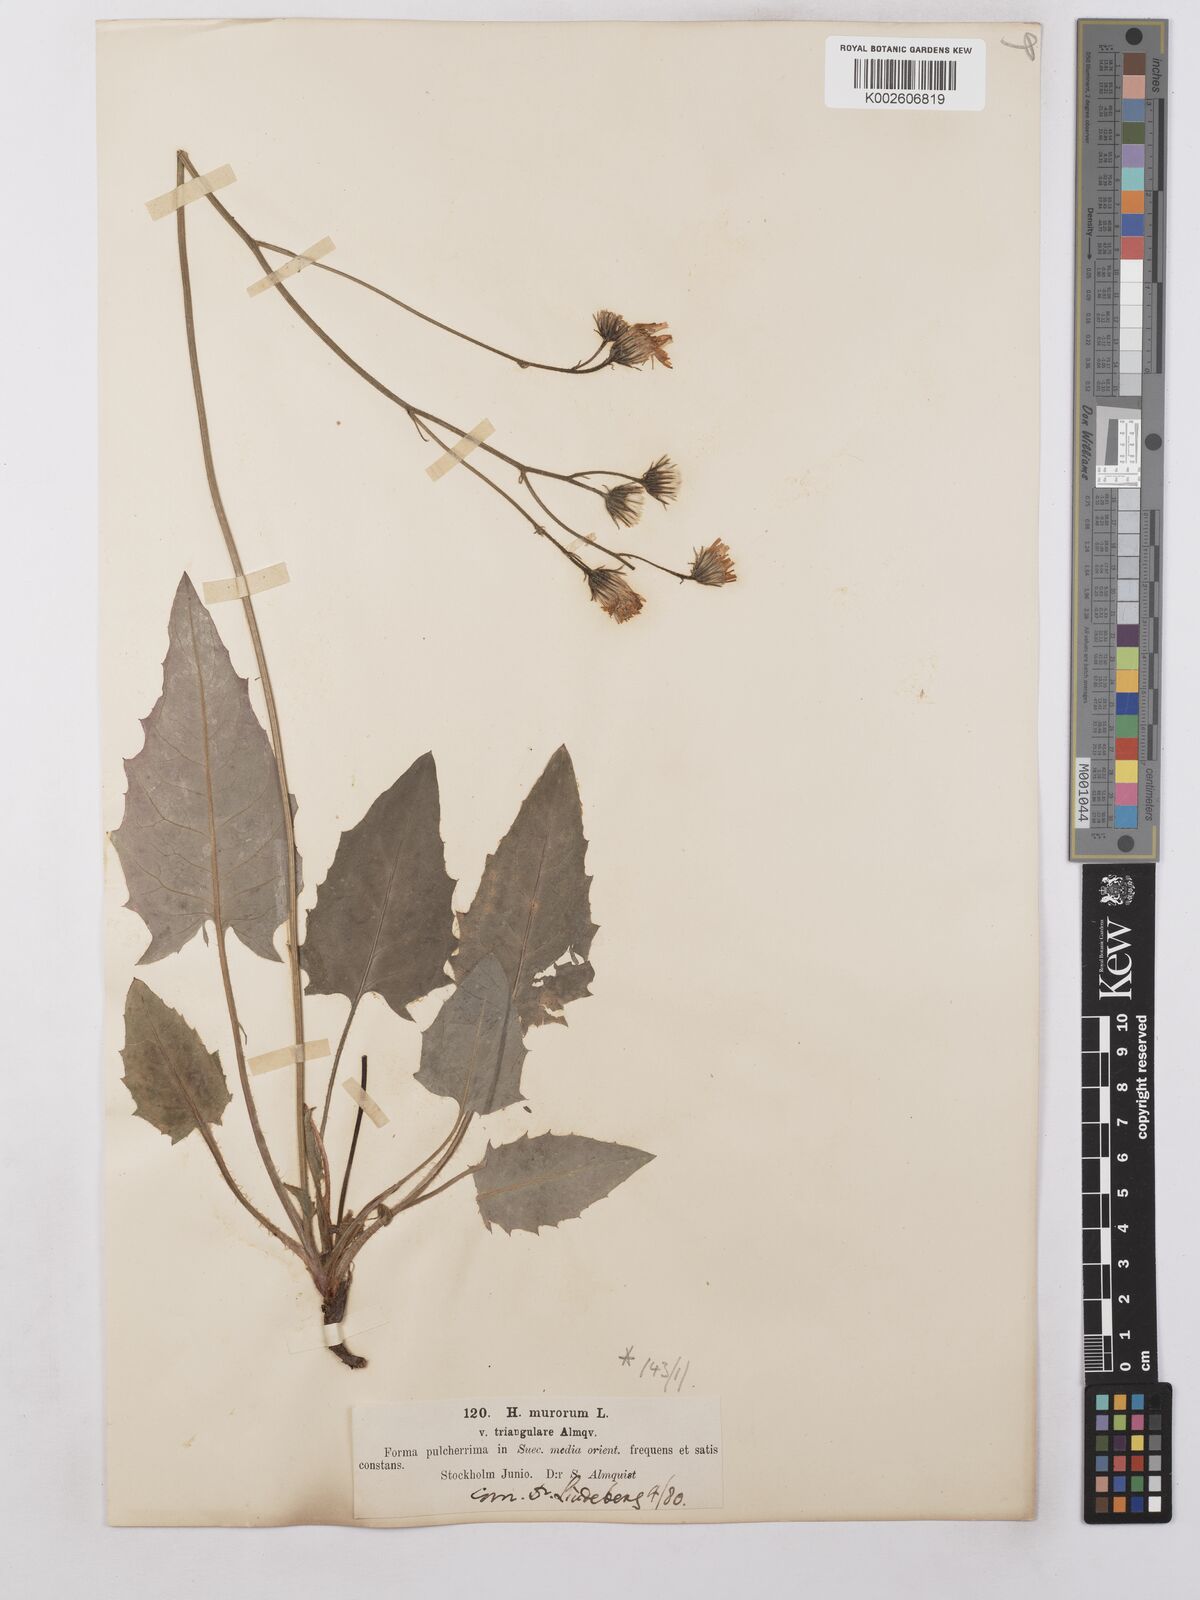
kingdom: Plantae
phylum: Tracheophyta
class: Magnoliopsida
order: Asterales
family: Asteraceae
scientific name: Asteraceae
